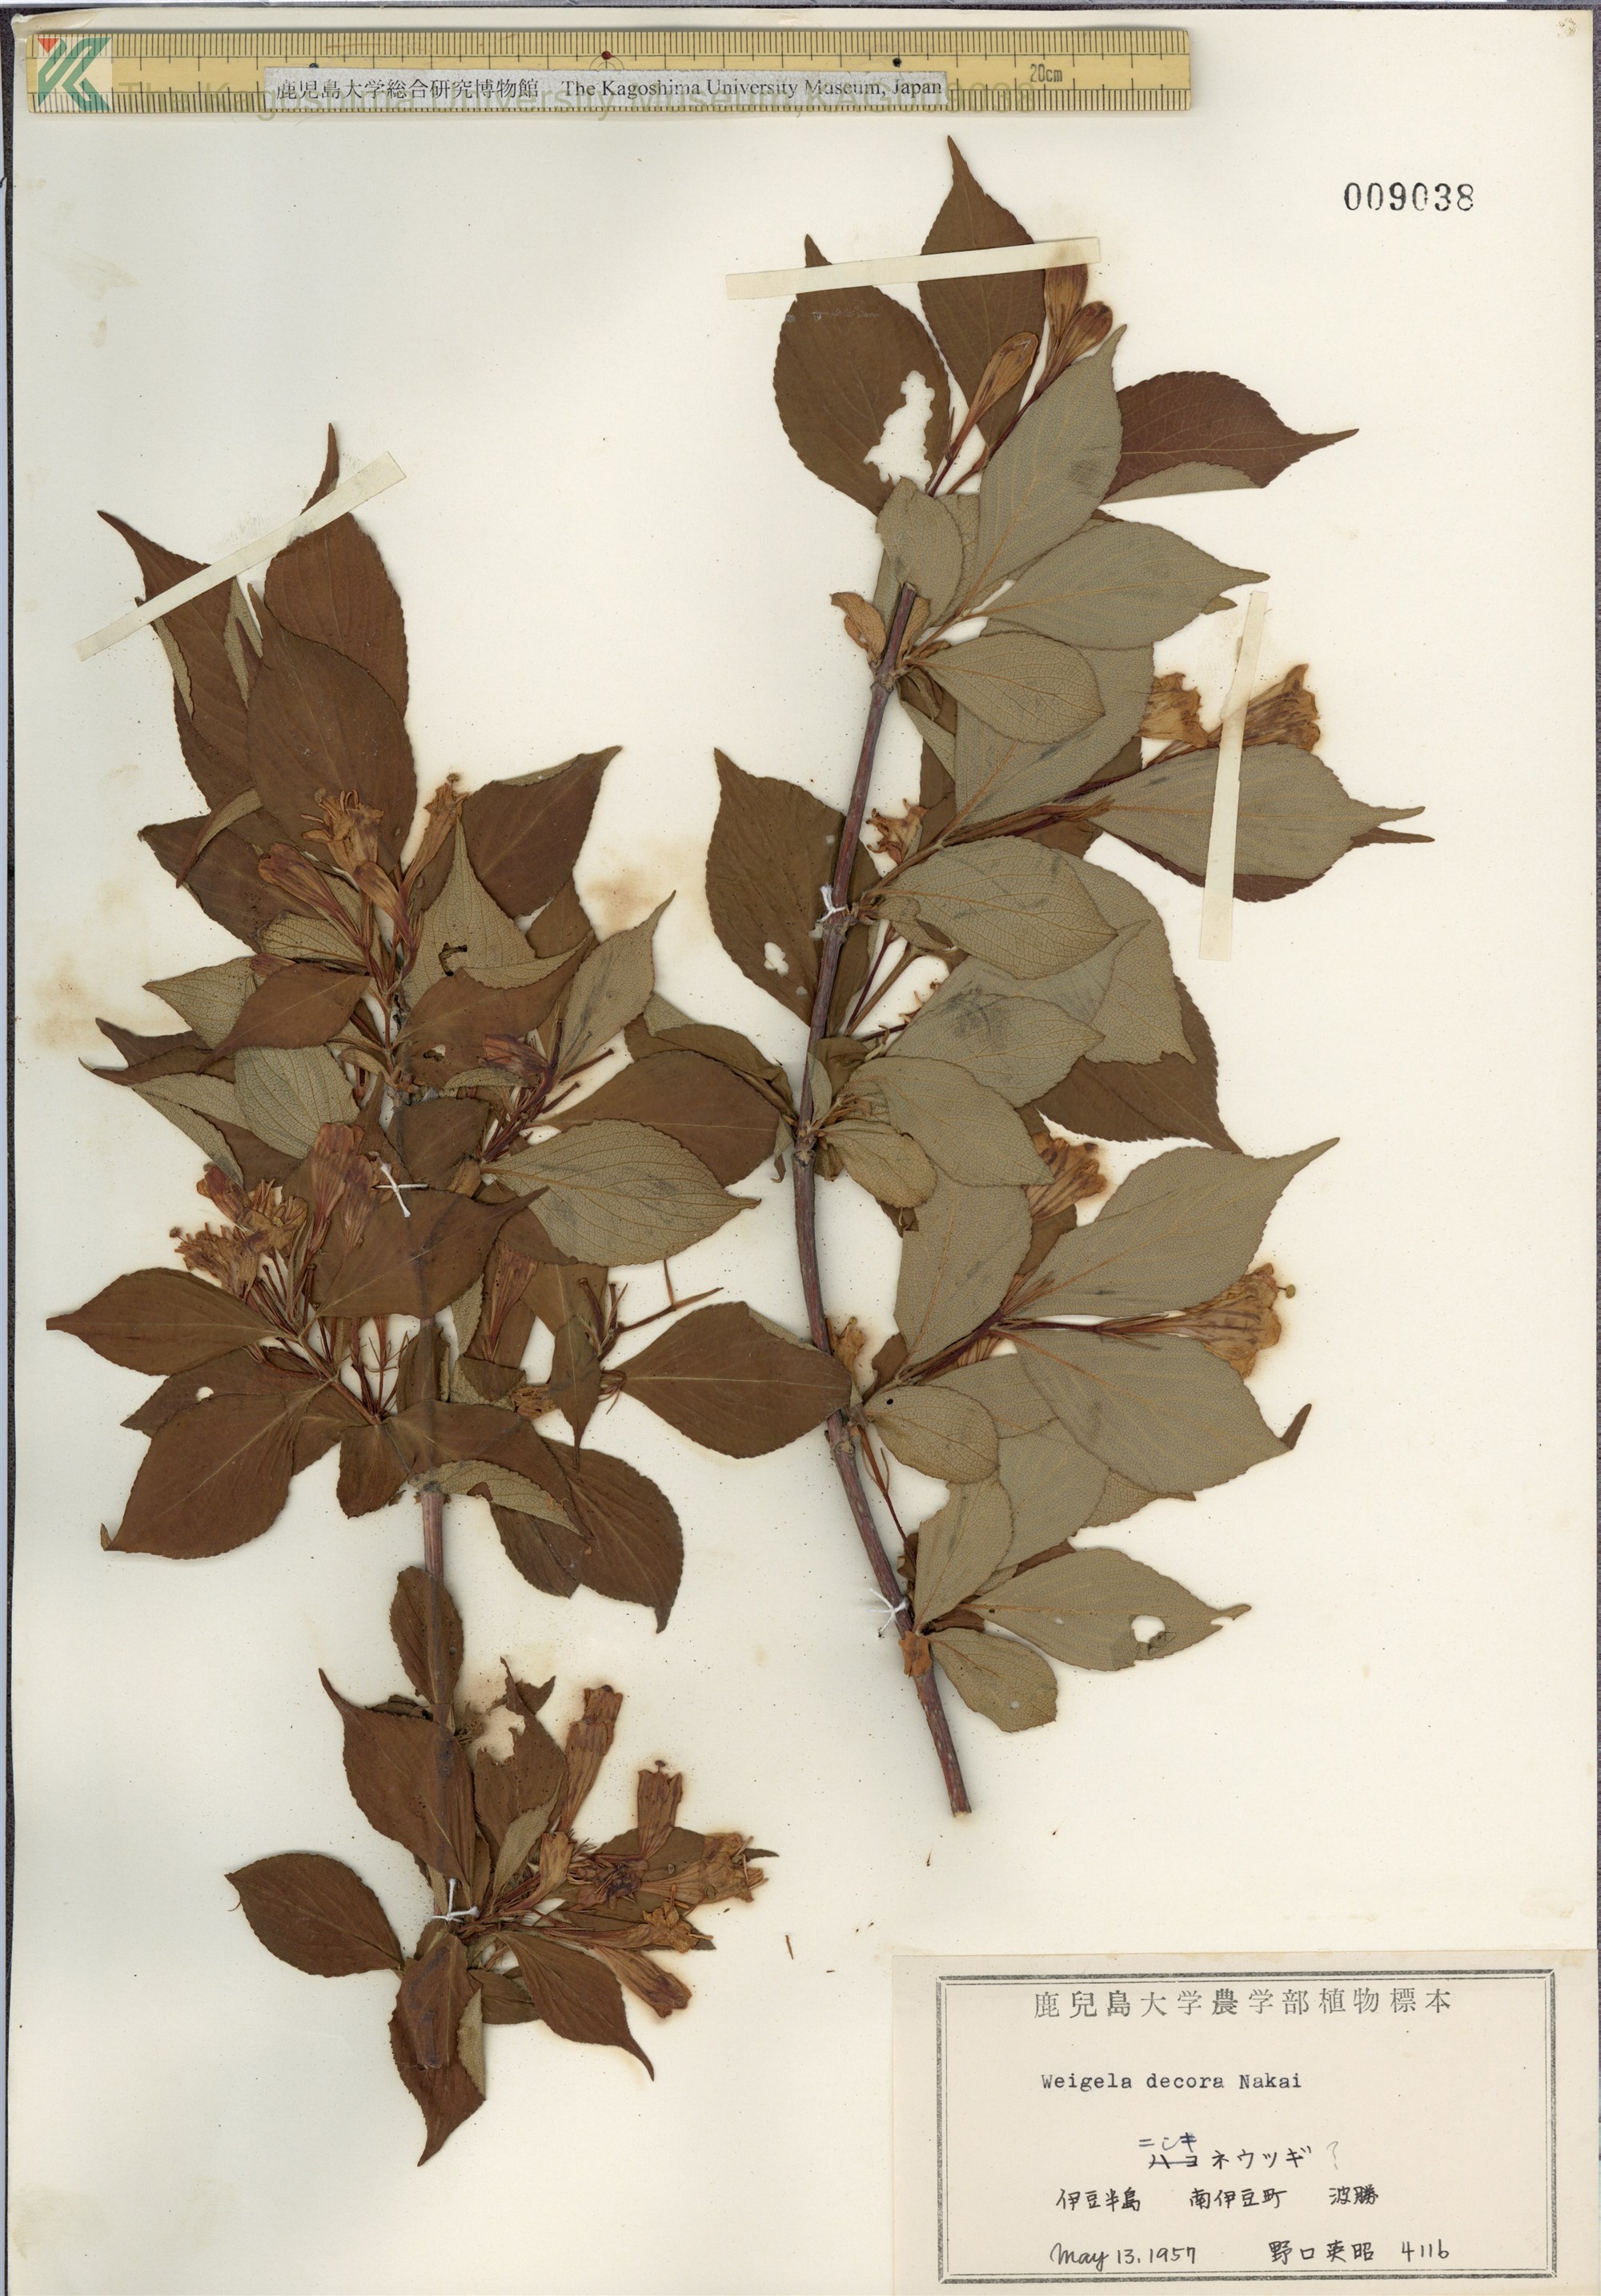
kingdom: Plantae
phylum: Tracheophyta
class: Magnoliopsida
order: Dipsacales
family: Caprifoliaceae
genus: Weigela
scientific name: Weigela decora
